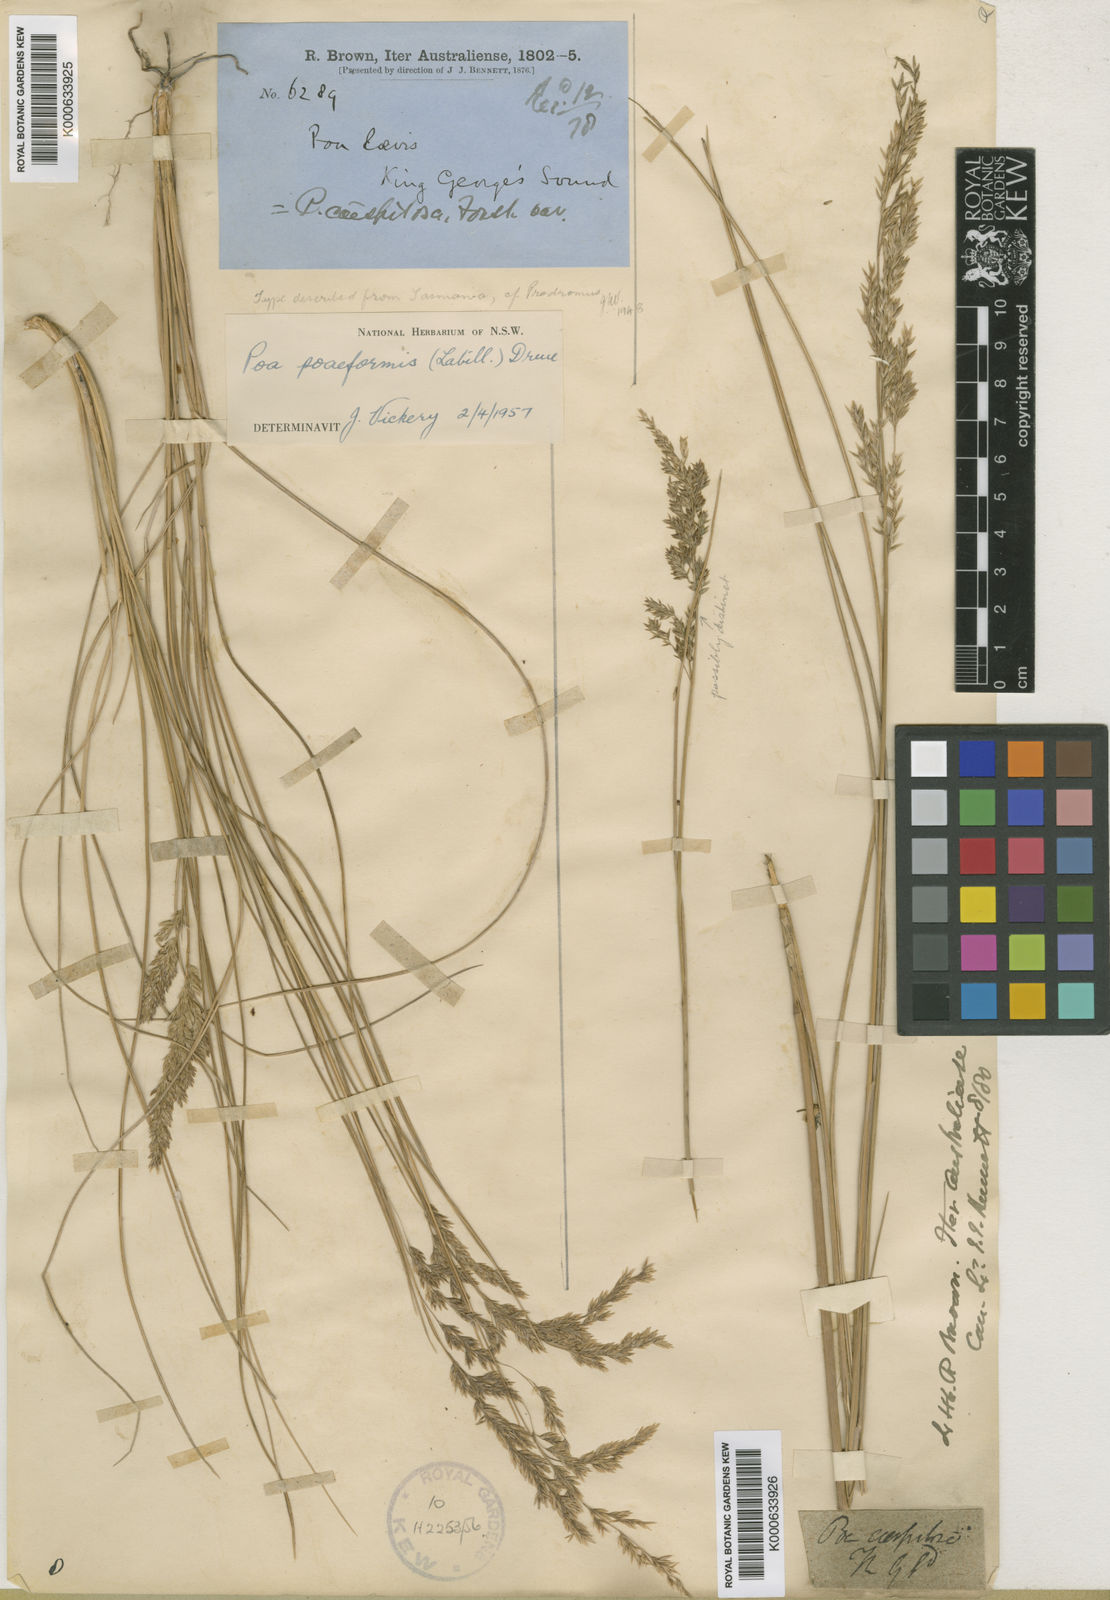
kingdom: Plantae
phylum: Tracheophyta
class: Liliopsida
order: Poales
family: Poaceae
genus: Poa
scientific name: Poa poiformis
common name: Tussock poa
